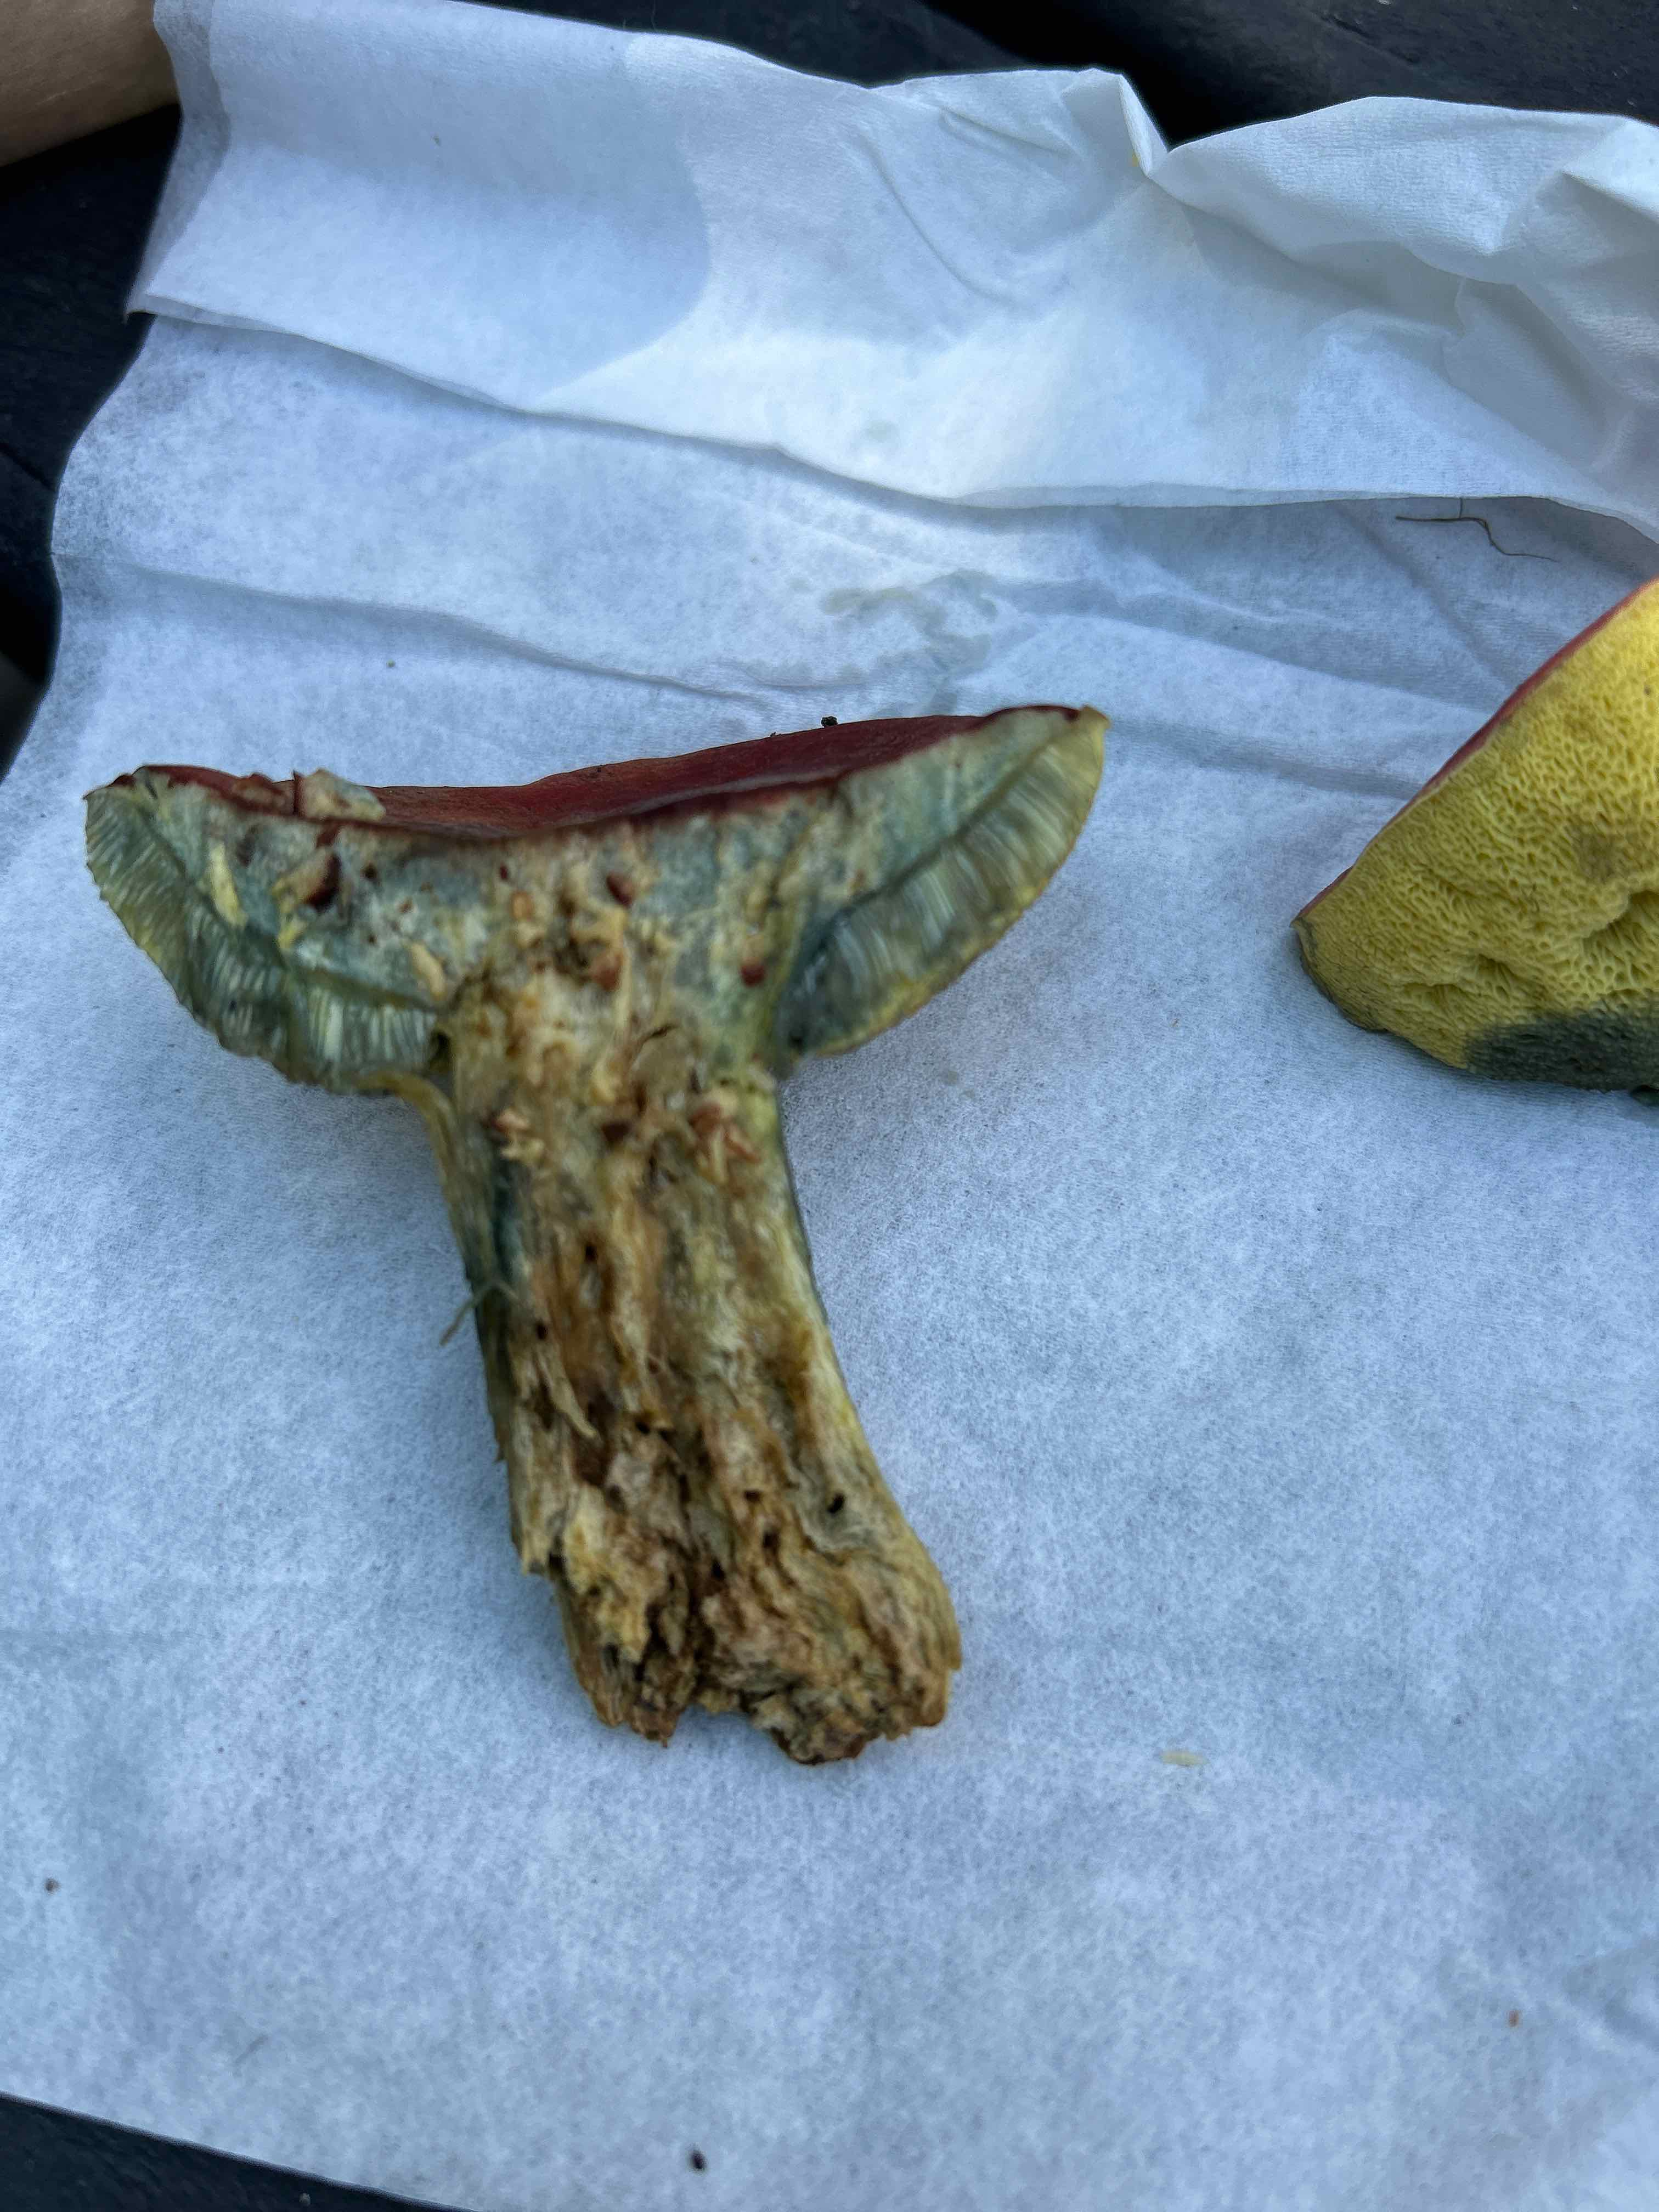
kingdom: Fungi
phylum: Basidiomycota
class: Agaricomycetes
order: Boletales
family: Boletaceae
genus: Hortiboletus
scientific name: Hortiboletus rubellus
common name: blodrød rørhat
